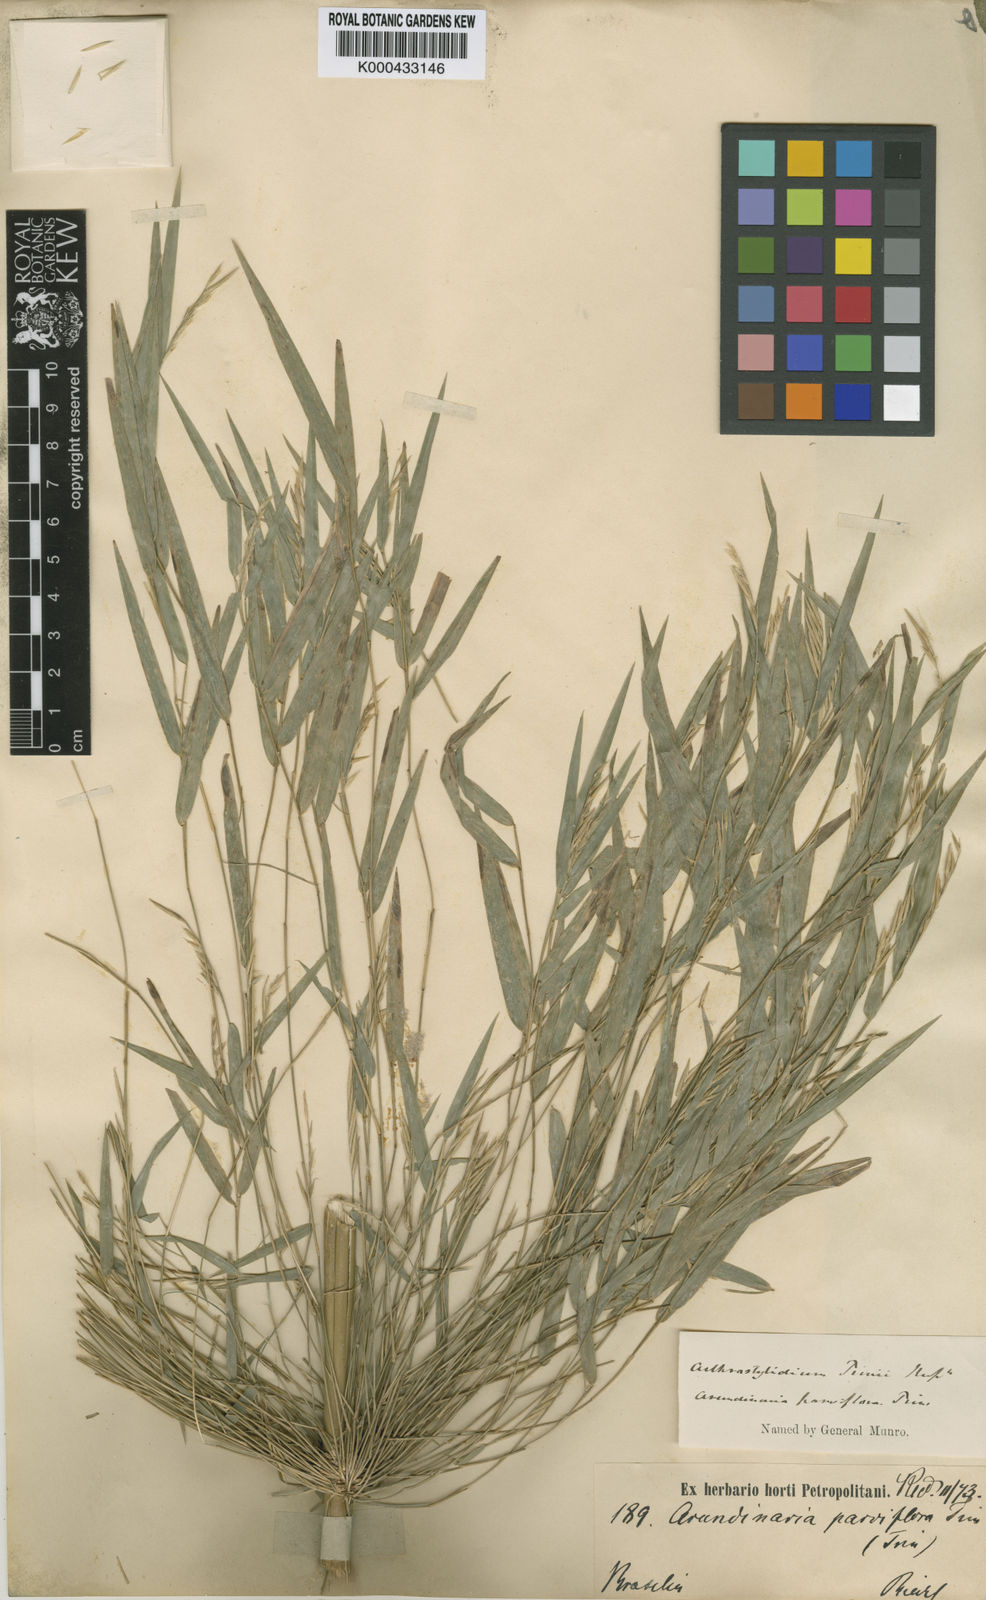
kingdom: Plantae
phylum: Tracheophyta
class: Liliopsida
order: Poales
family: Poaceae
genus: Rhipidocladum
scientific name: Rhipidocladum parviflorum
